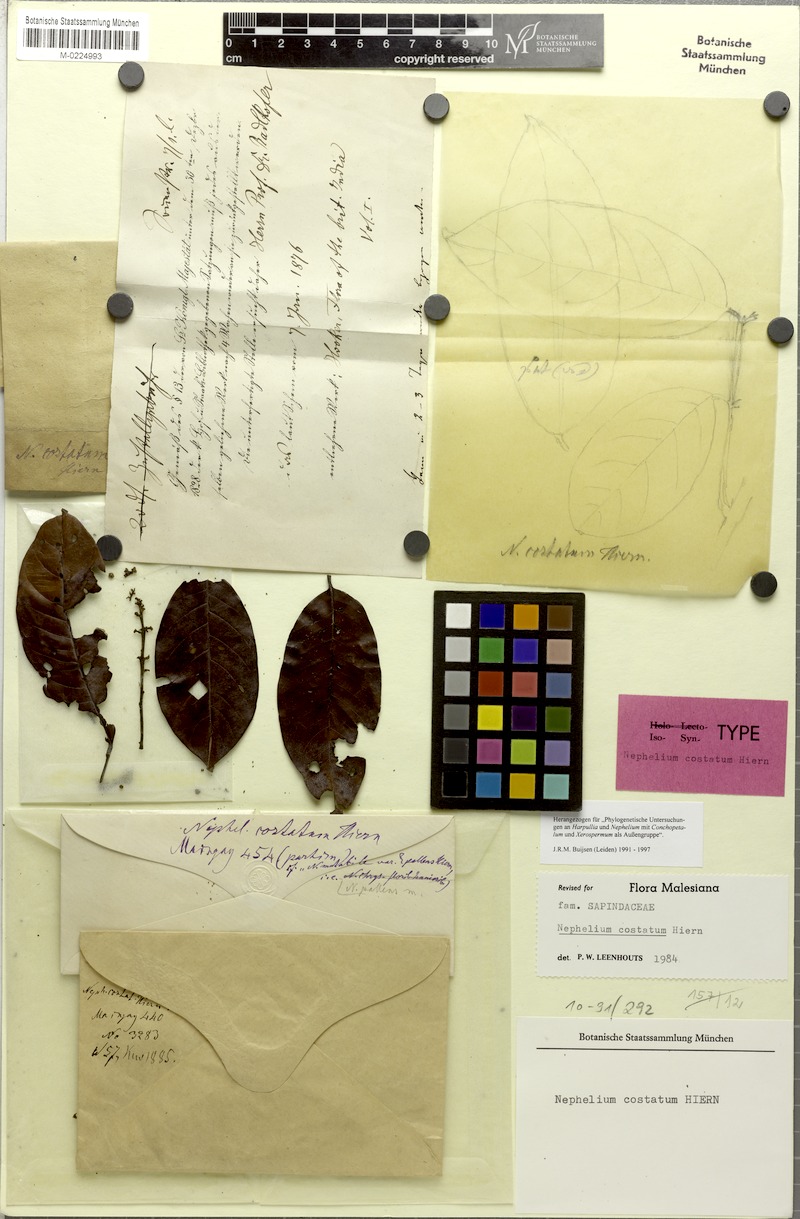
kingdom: Plantae
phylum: Tracheophyta
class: Magnoliopsida
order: Sapindales
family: Sapindaceae
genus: Nephelium
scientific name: Nephelium costatum
